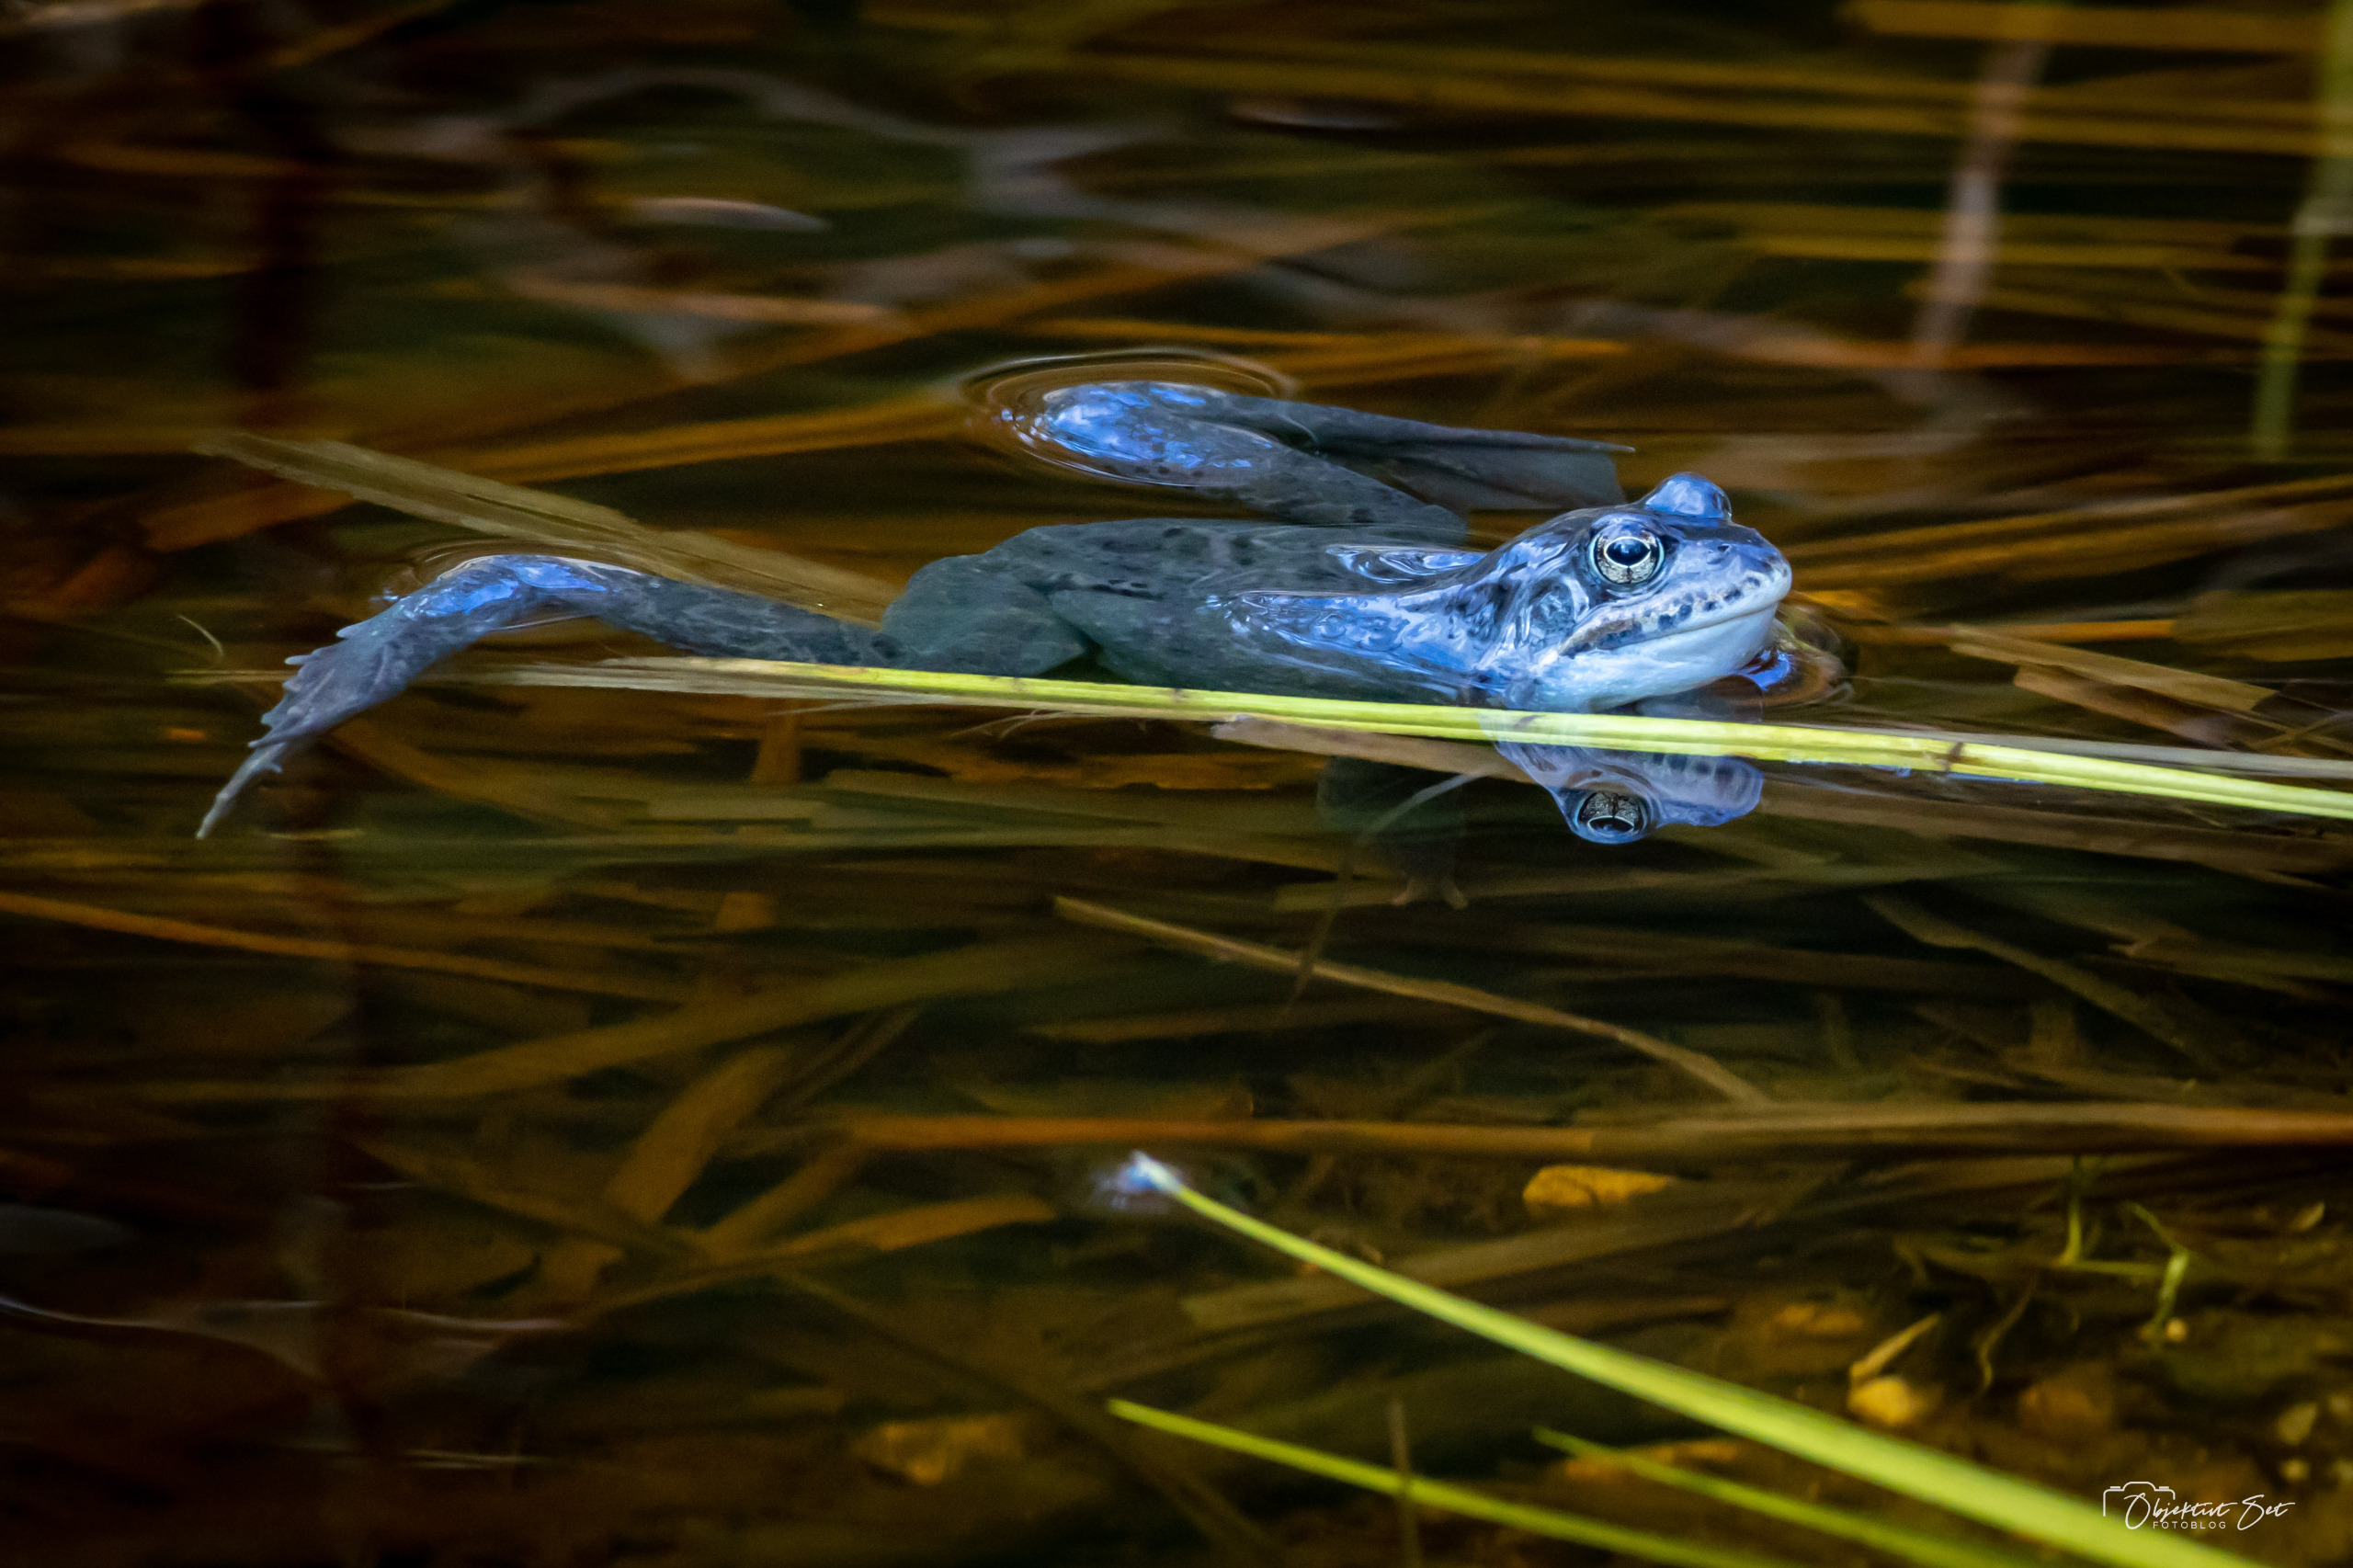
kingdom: Animalia
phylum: Chordata
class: Amphibia
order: Anura
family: Ranidae
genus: Rana
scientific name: Rana arvalis
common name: Spidssnudet frø
